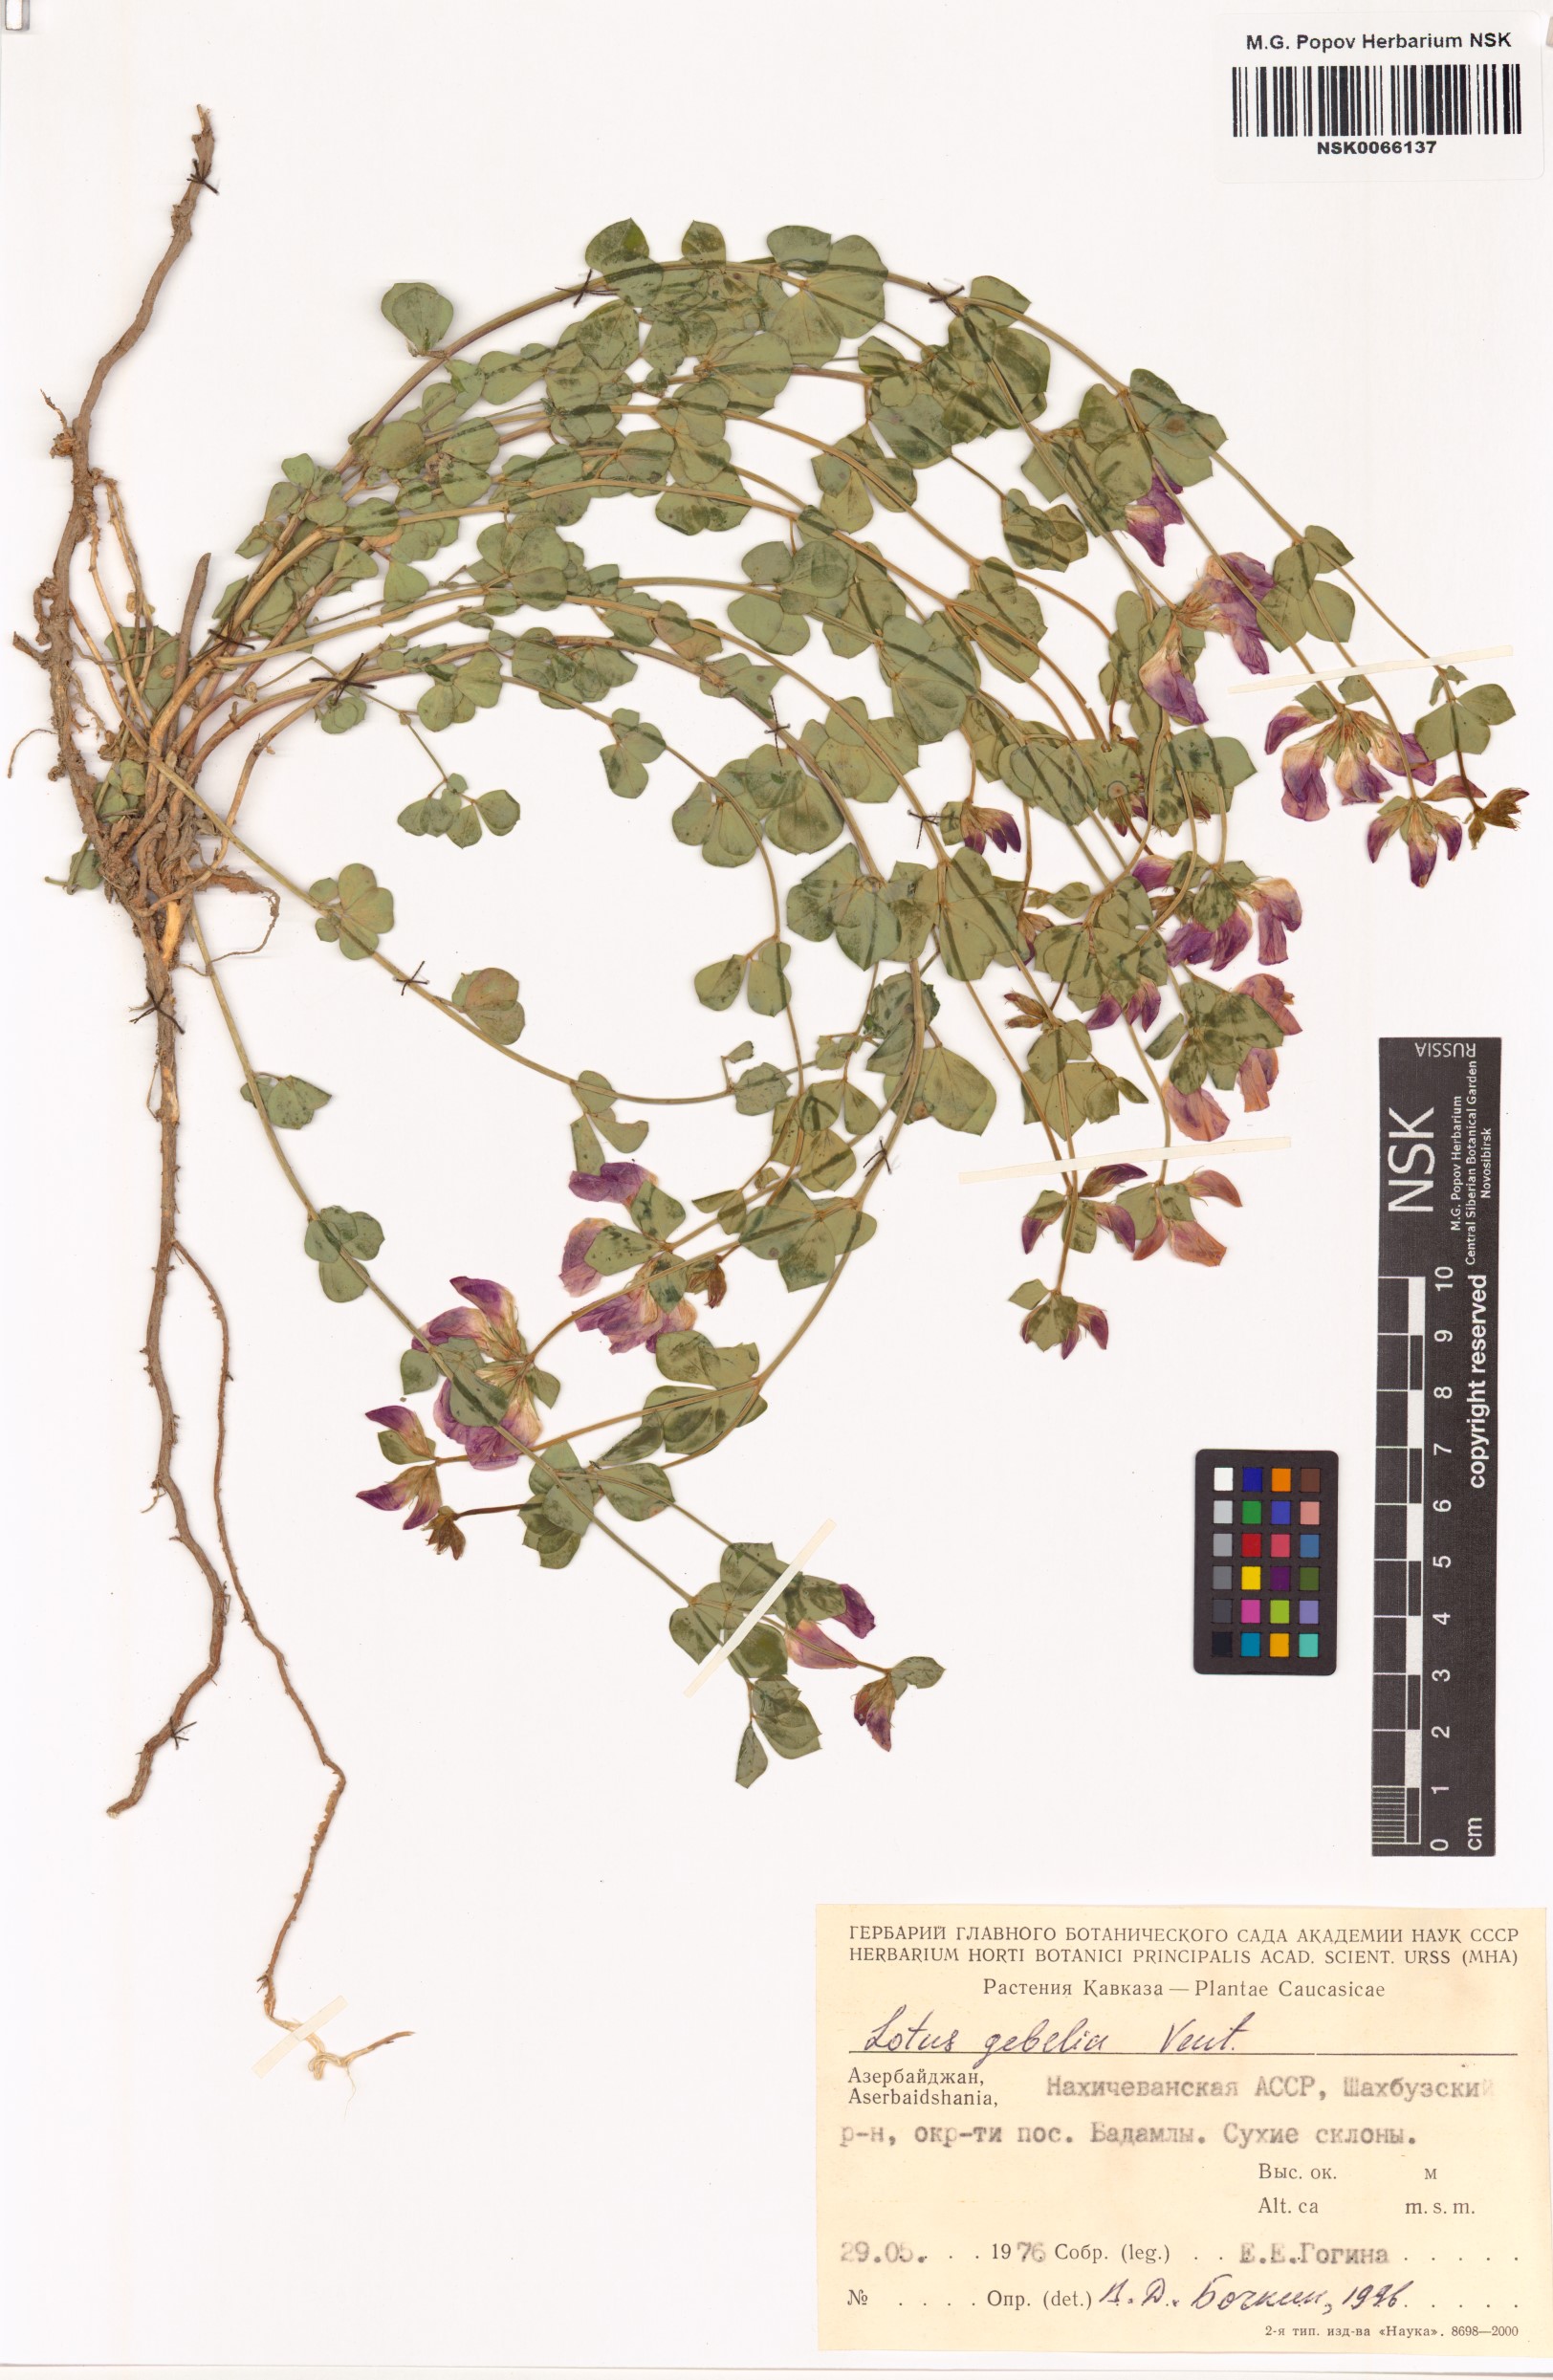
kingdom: Plantae
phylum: Tracheophyta
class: Magnoliopsida
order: Fabales
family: Fabaceae
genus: Lotus
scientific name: Lotus gebelia
